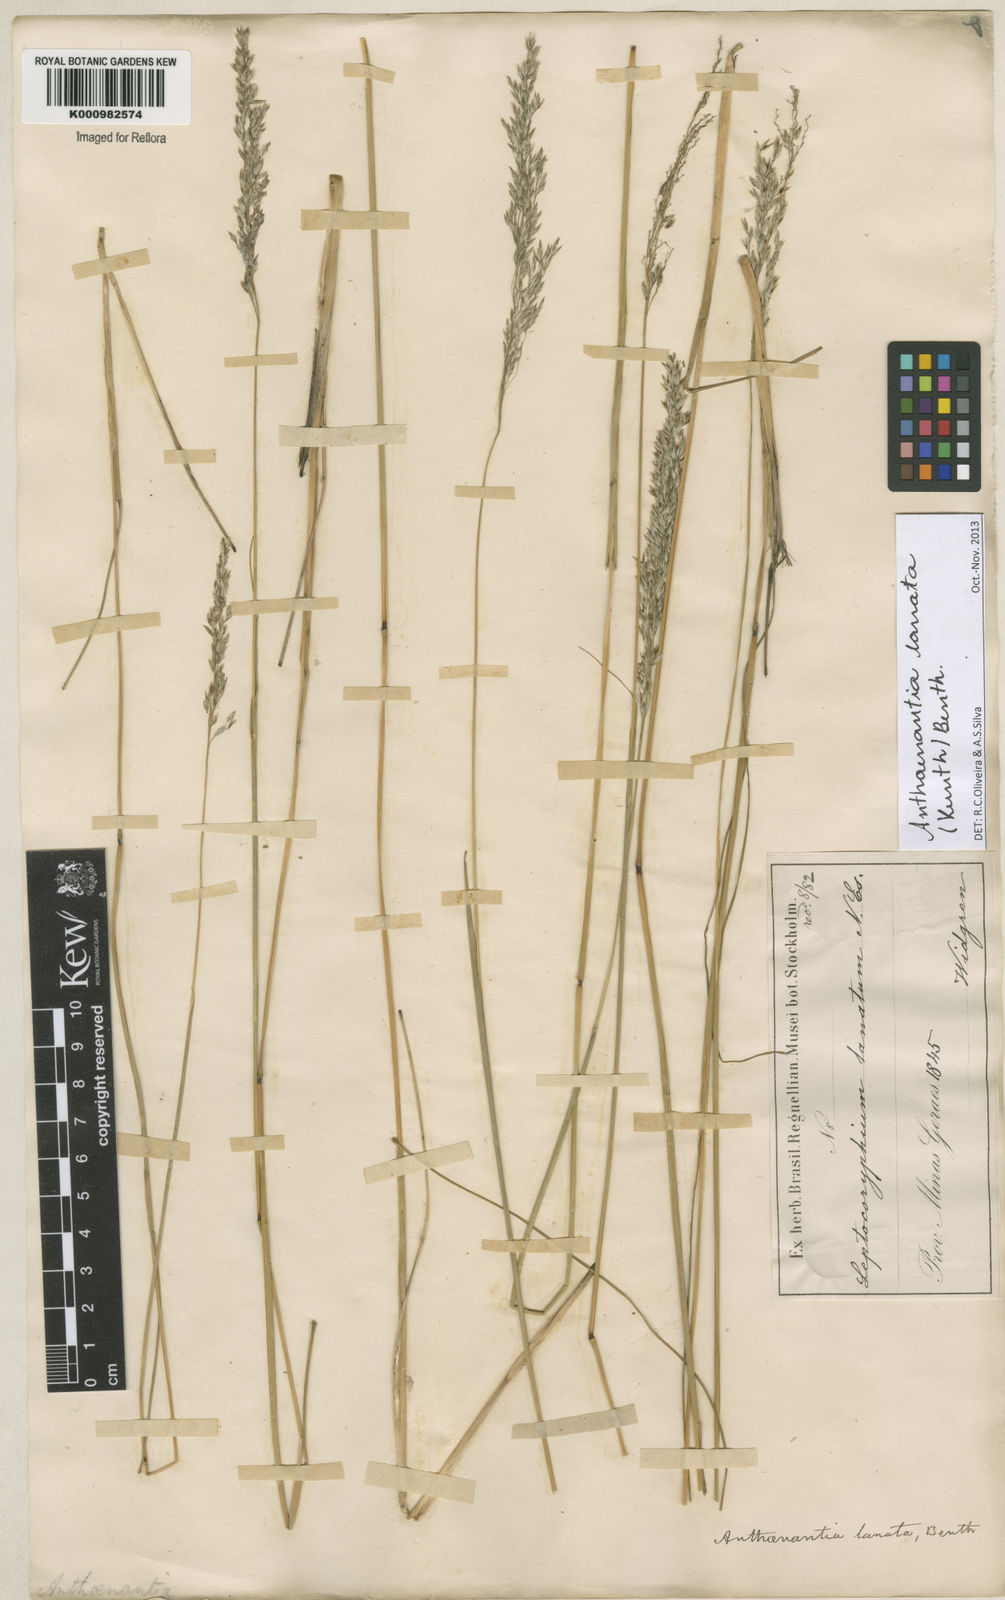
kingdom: Plantae
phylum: Tracheophyta
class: Liliopsida
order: Poales
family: Poaceae
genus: Anthenantia
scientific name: Anthenantia lanata
